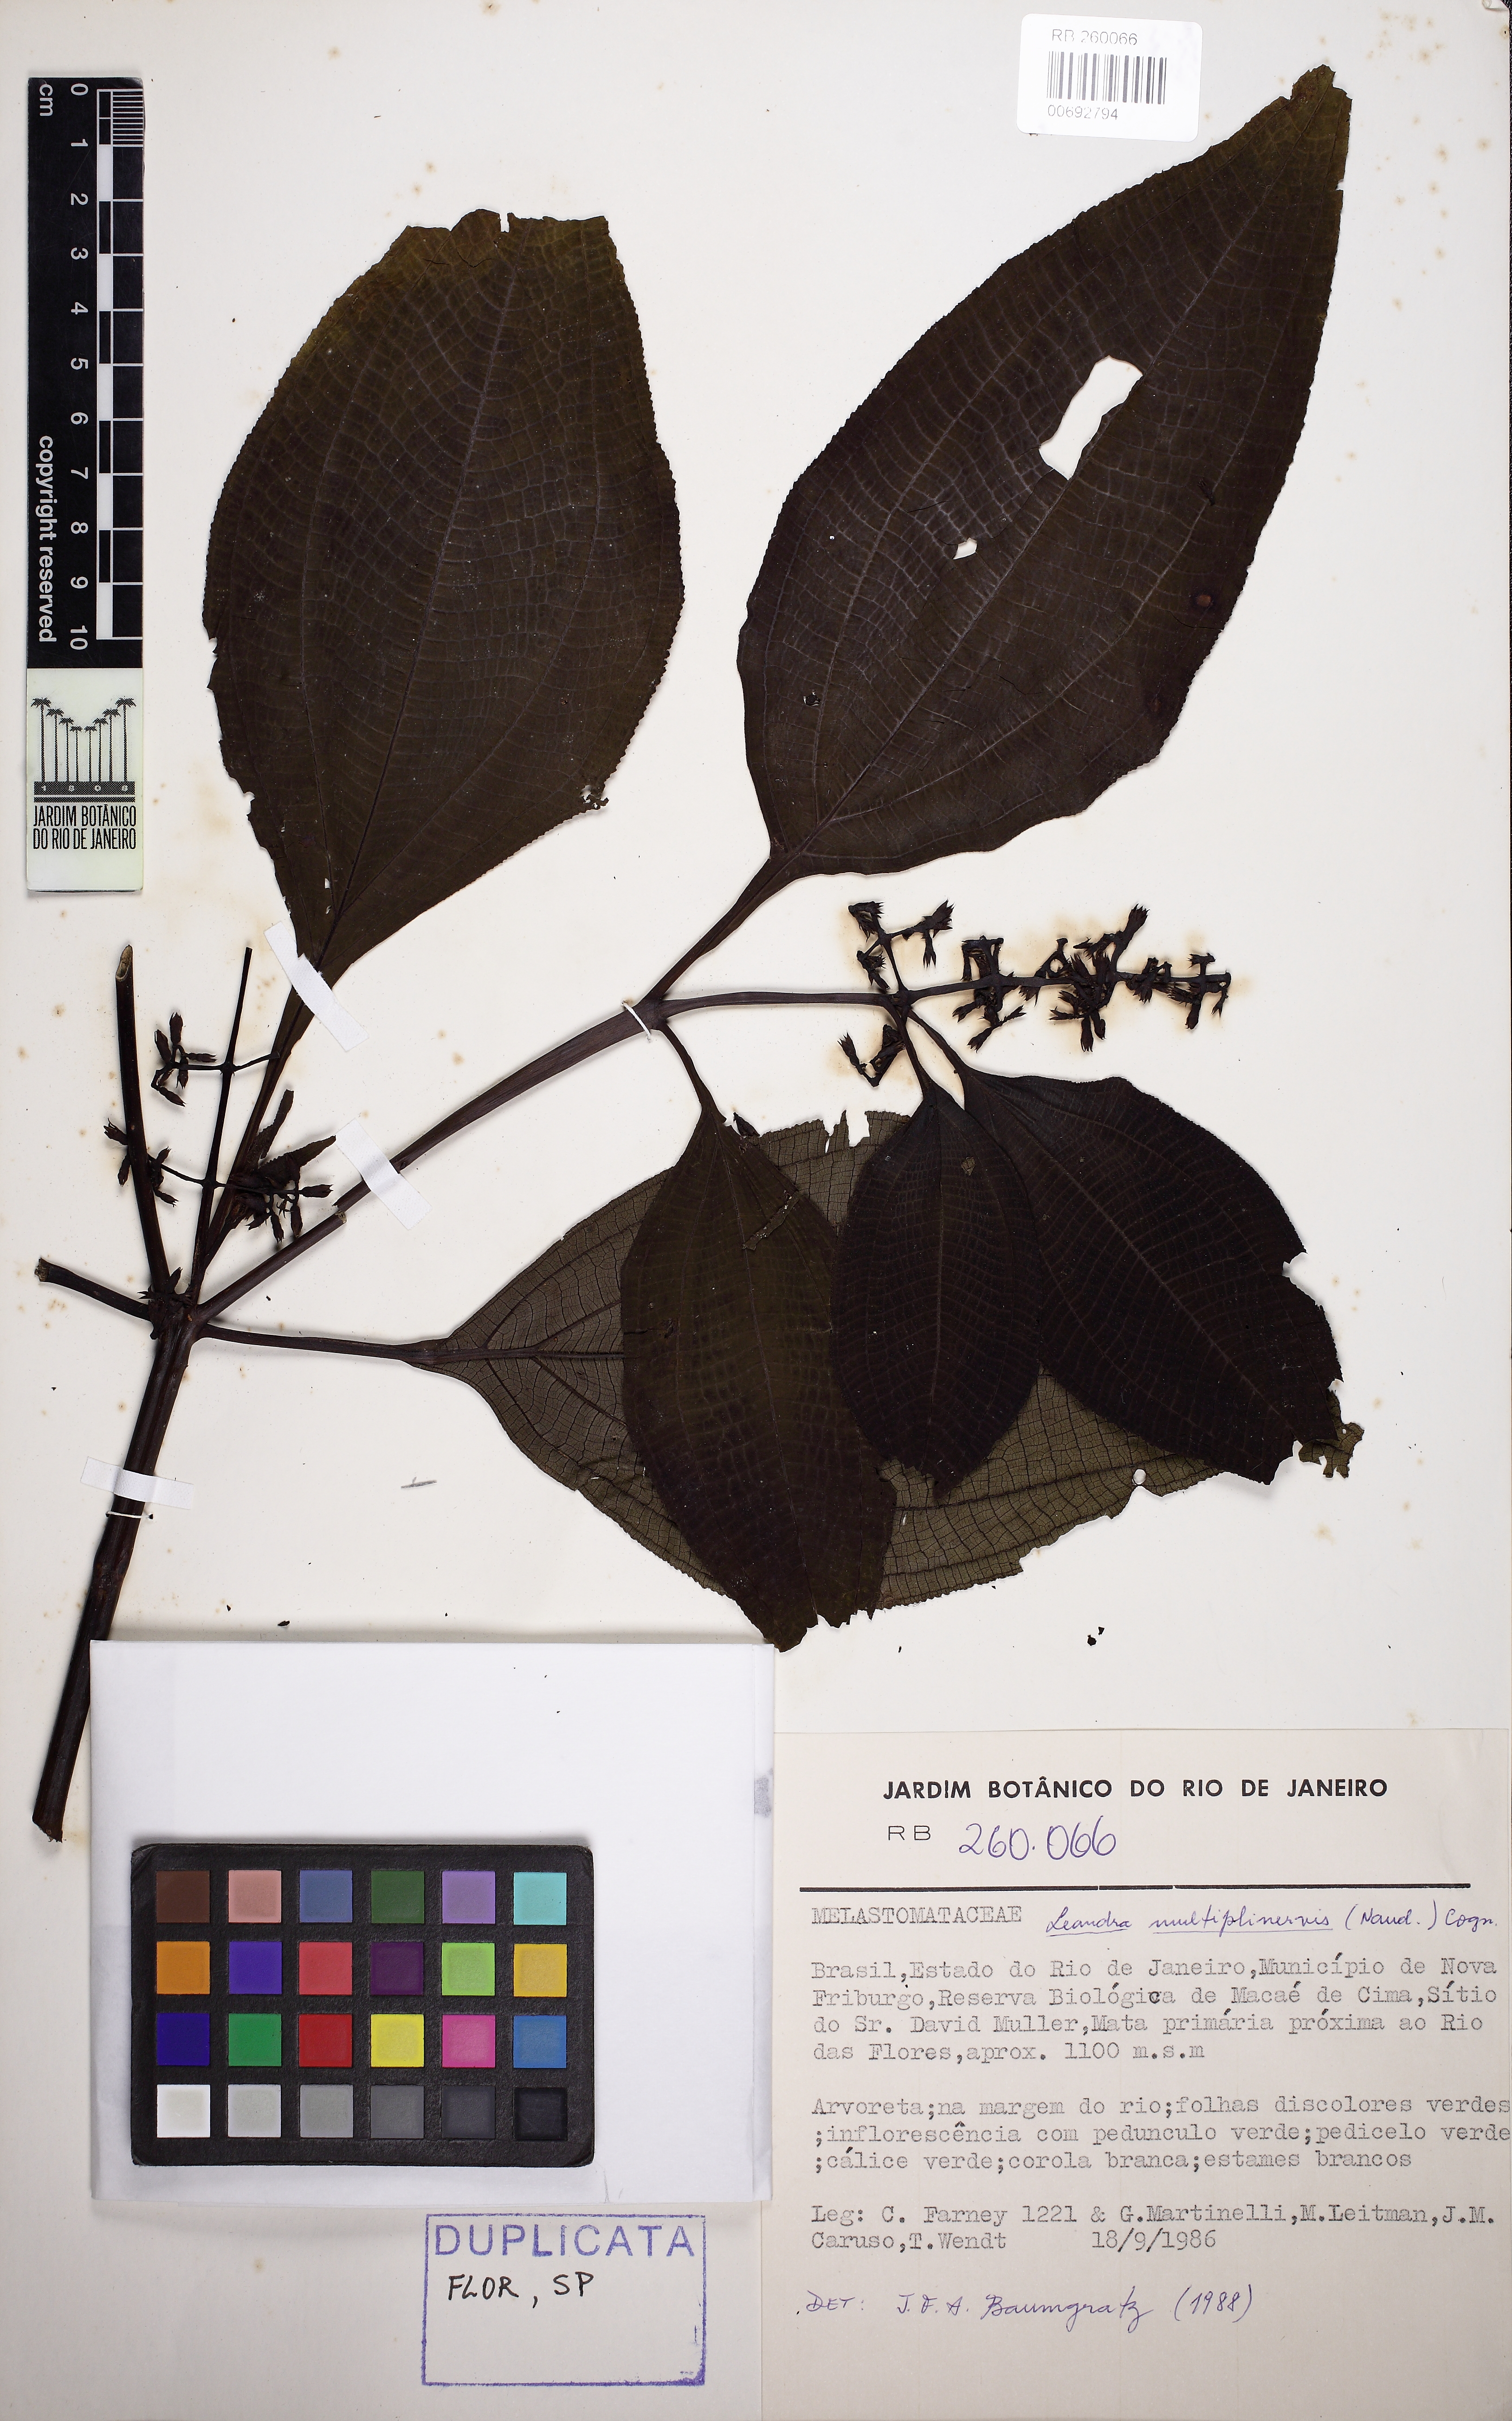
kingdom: Plantae
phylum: Tracheophyta
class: Magnoliopsida
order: Myrtales
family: Melastomataceae
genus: Miconia
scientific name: Miconia oocarpa
